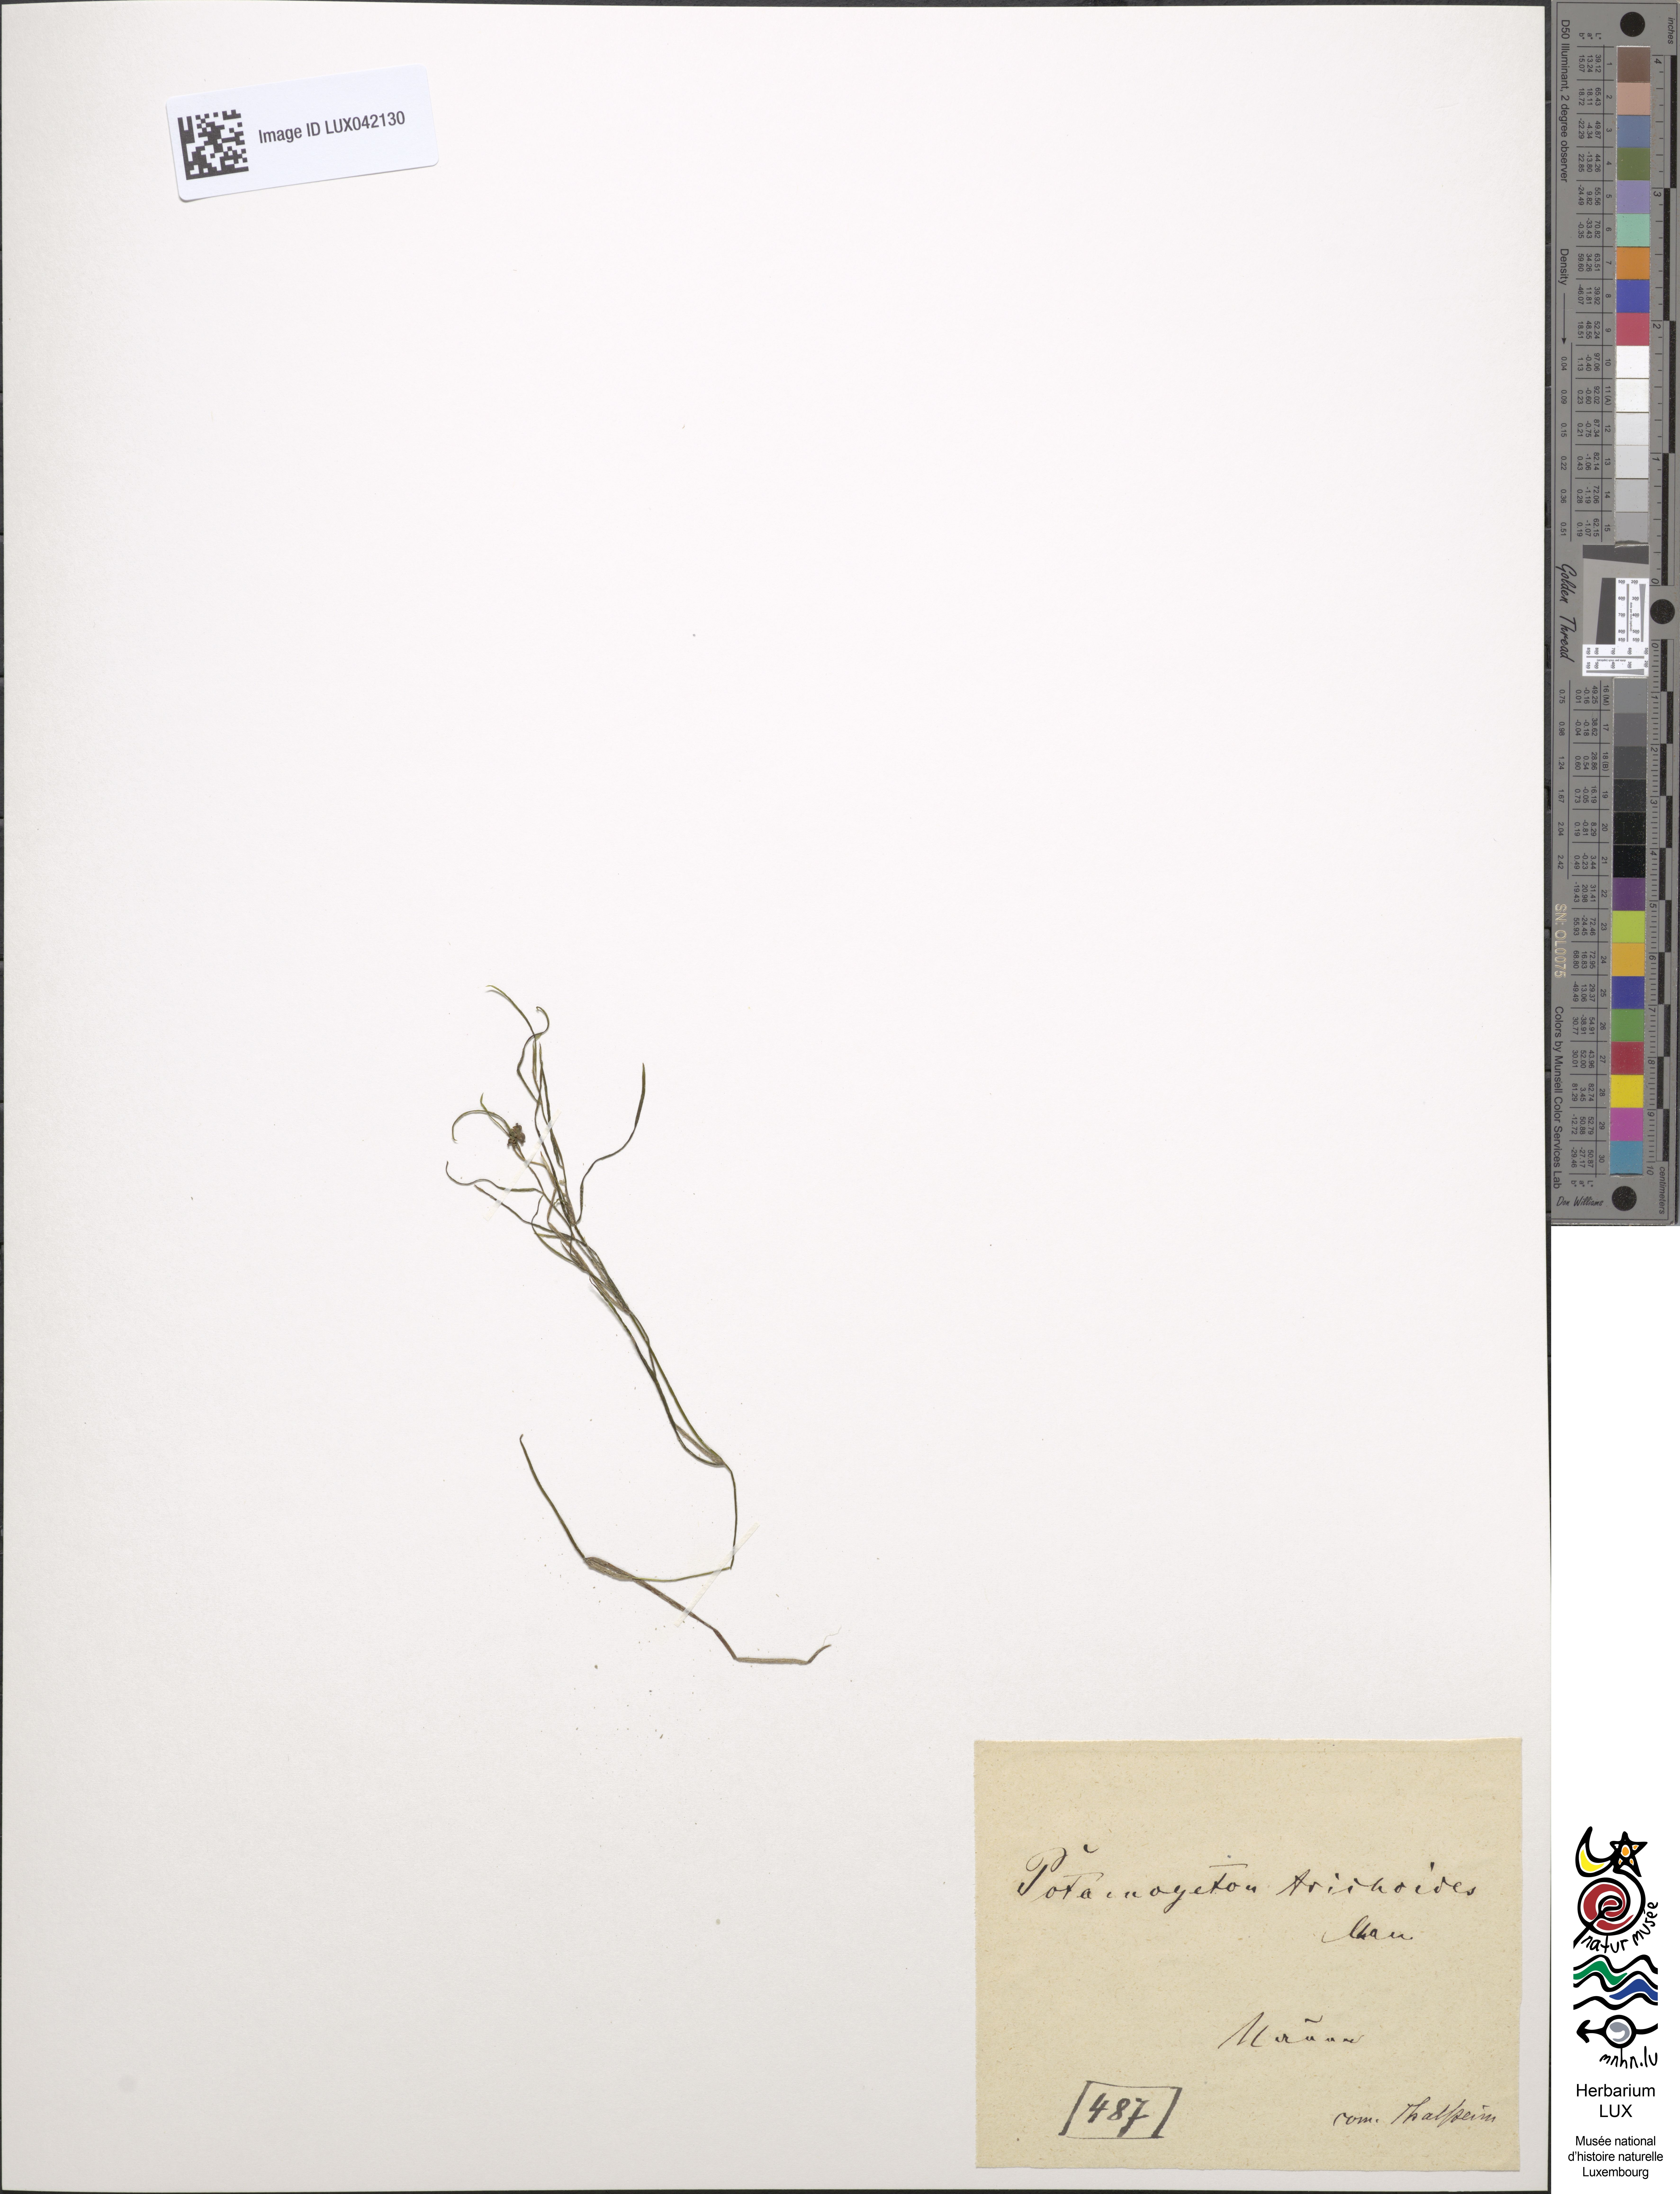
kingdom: Plantae
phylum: Tracheophyta
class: Liliopsida
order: Alismatales
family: Potamogetonaceae
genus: Potamogeton
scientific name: Potamogeton trichoides
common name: Hairlike pondweed
